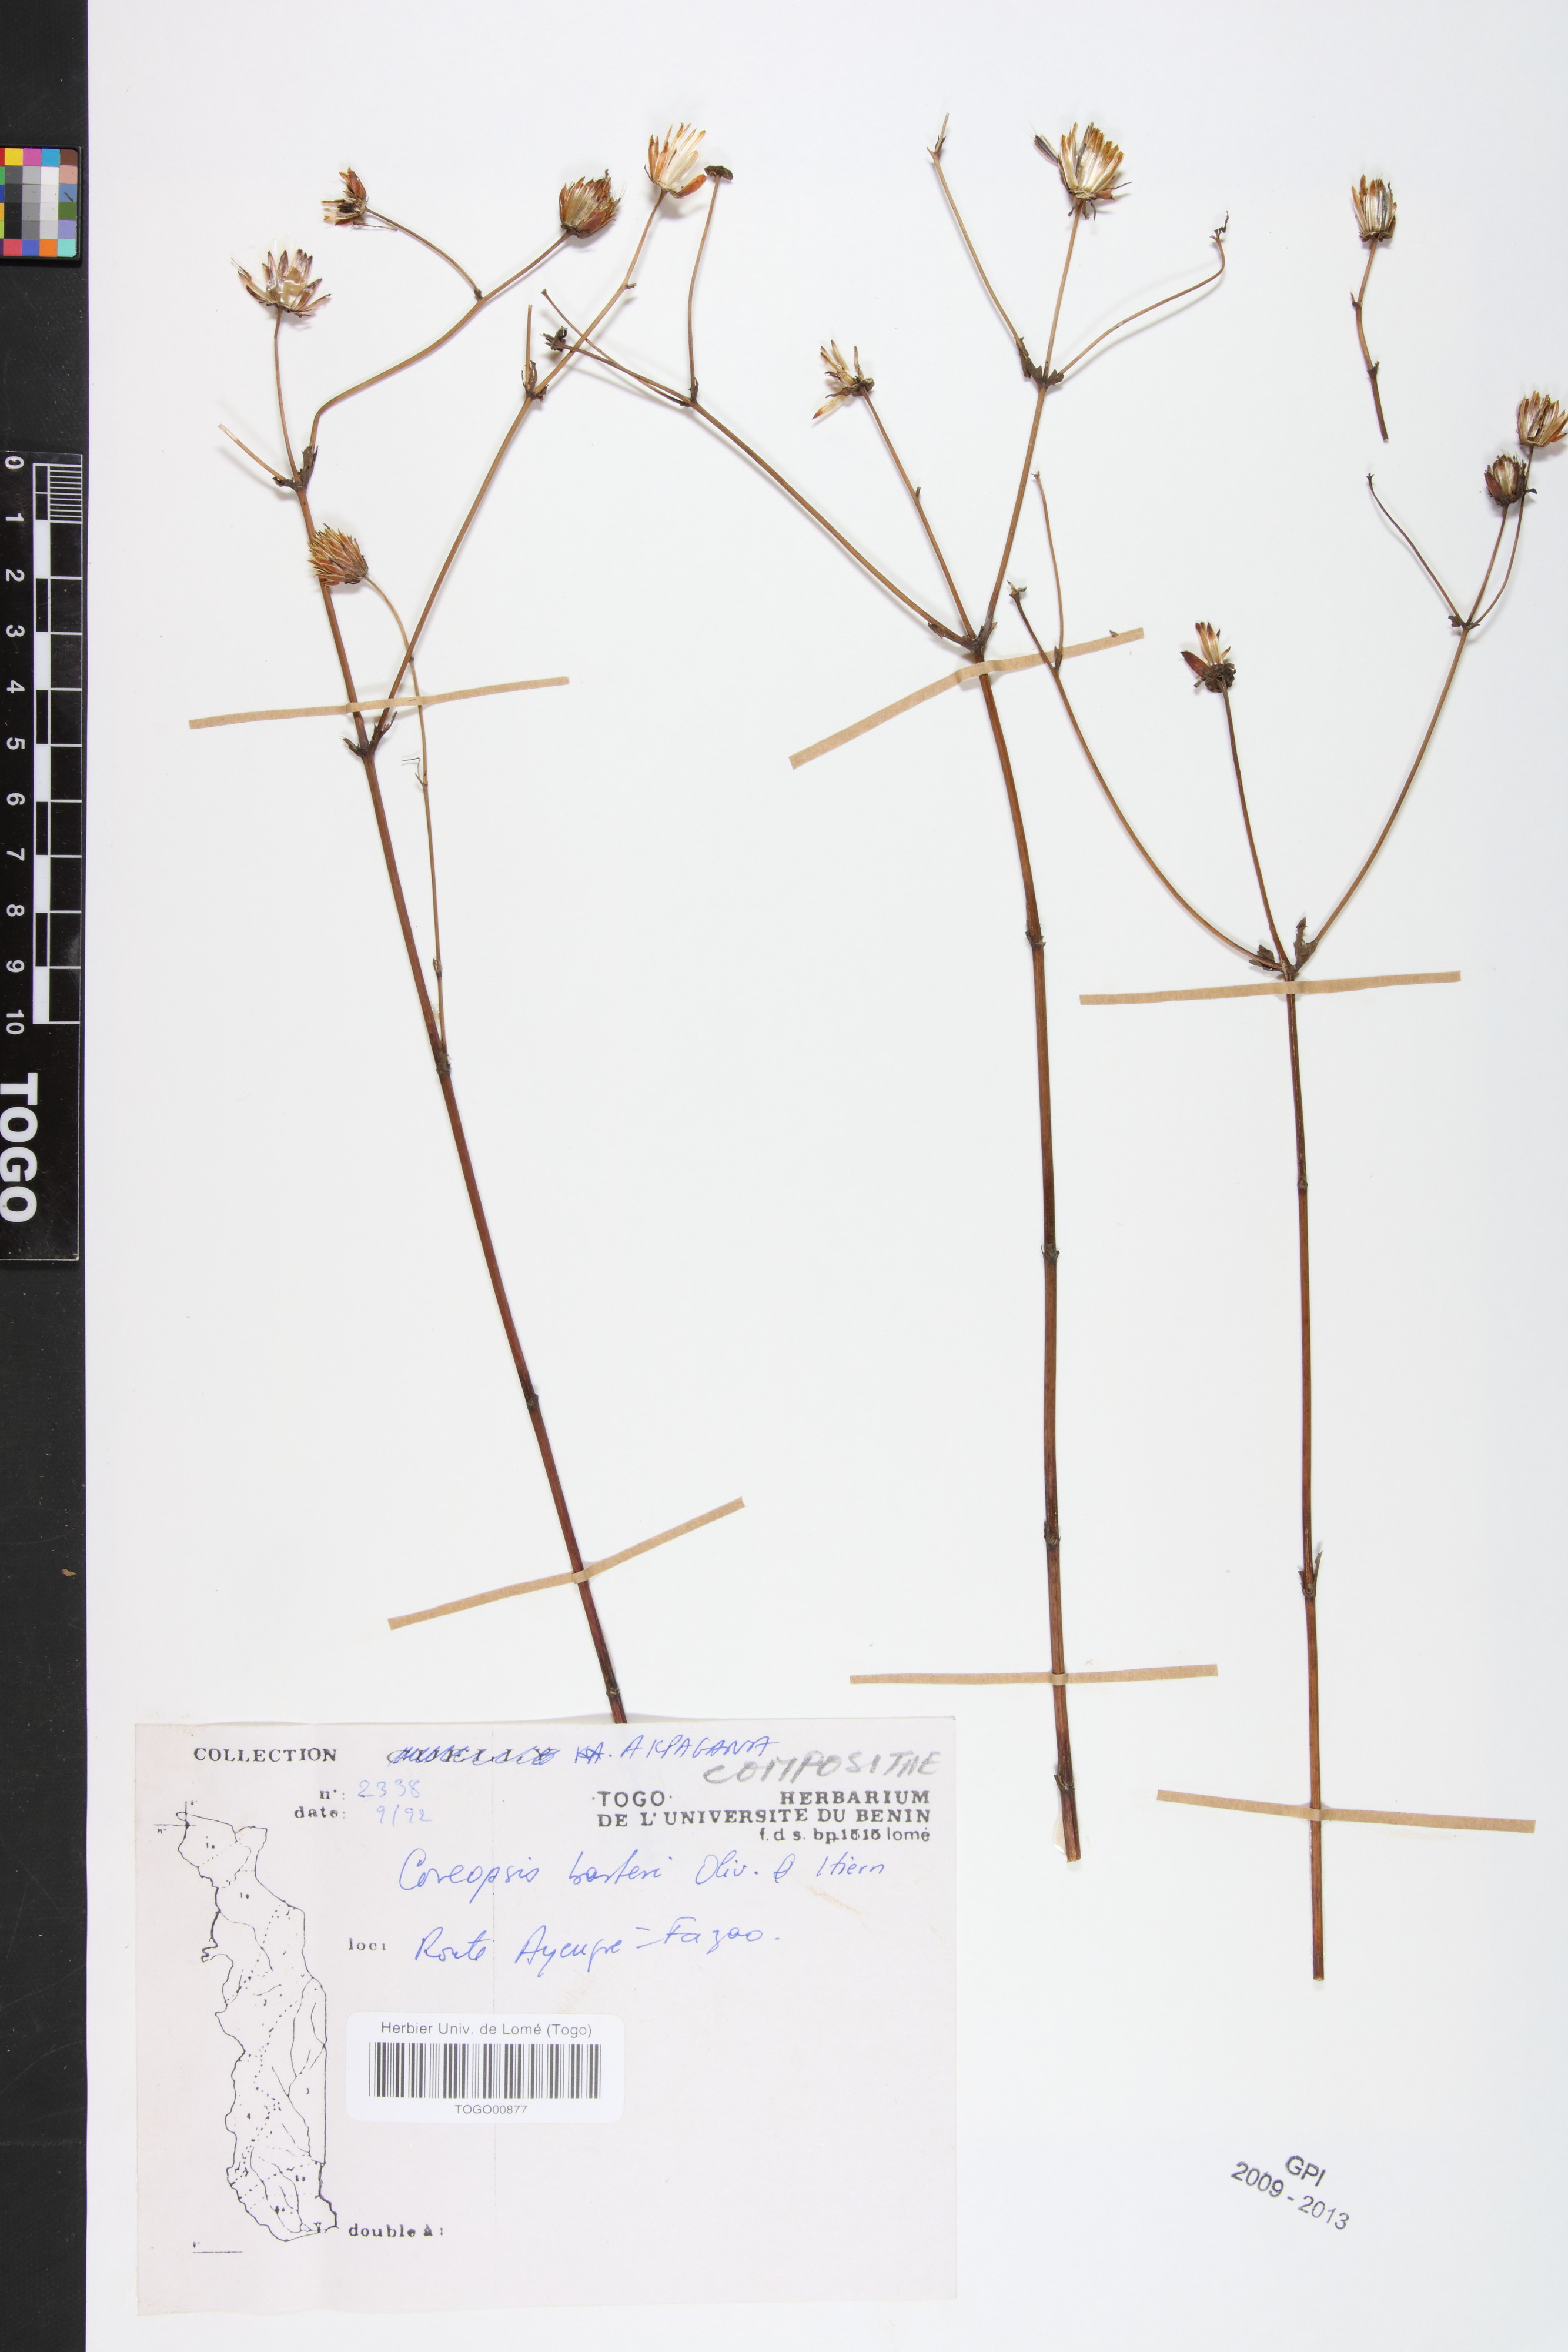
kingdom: Plantae
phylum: Tracheophyta
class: Magnoliopsida
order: Asterales
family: Asteraceae
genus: Bidens
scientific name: Bidens barteri
